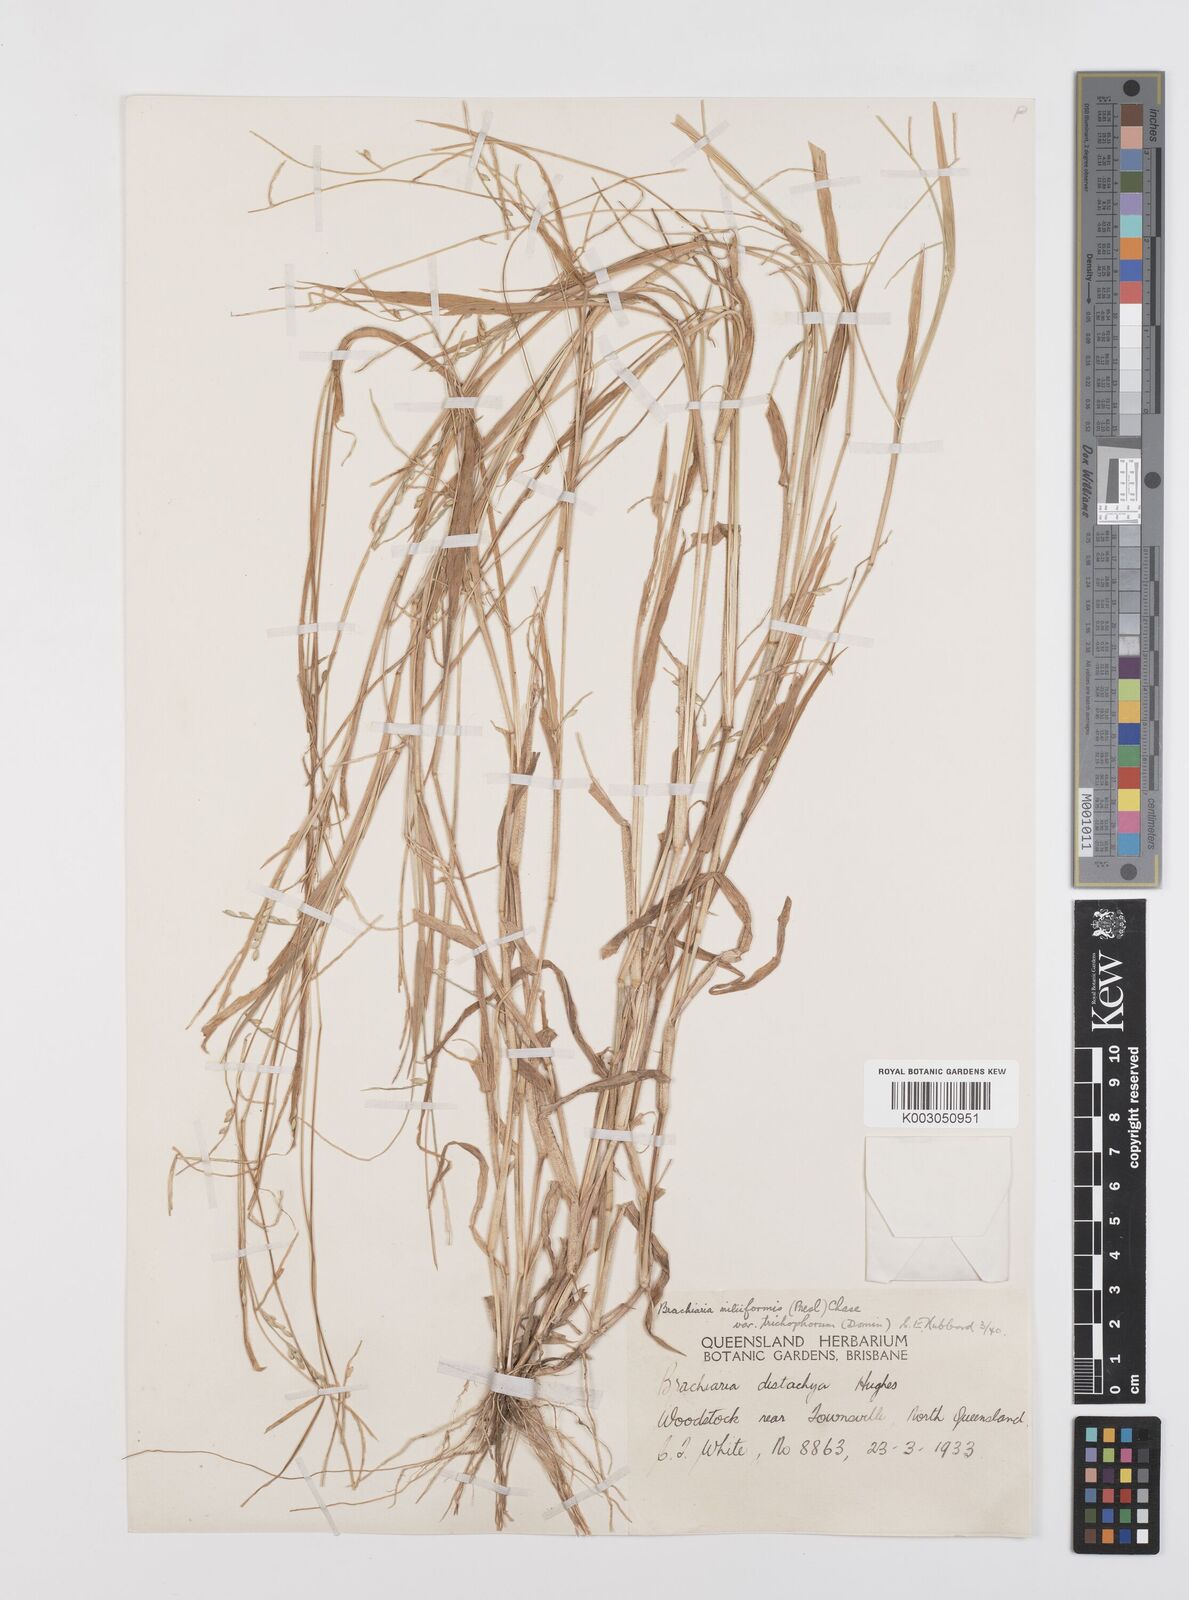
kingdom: Plantae
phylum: Tracheophyta
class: Liliopsida
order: Poales
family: Poaceae
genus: Urochloa
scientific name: Urochloa subquadripara
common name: Armgrass millet
